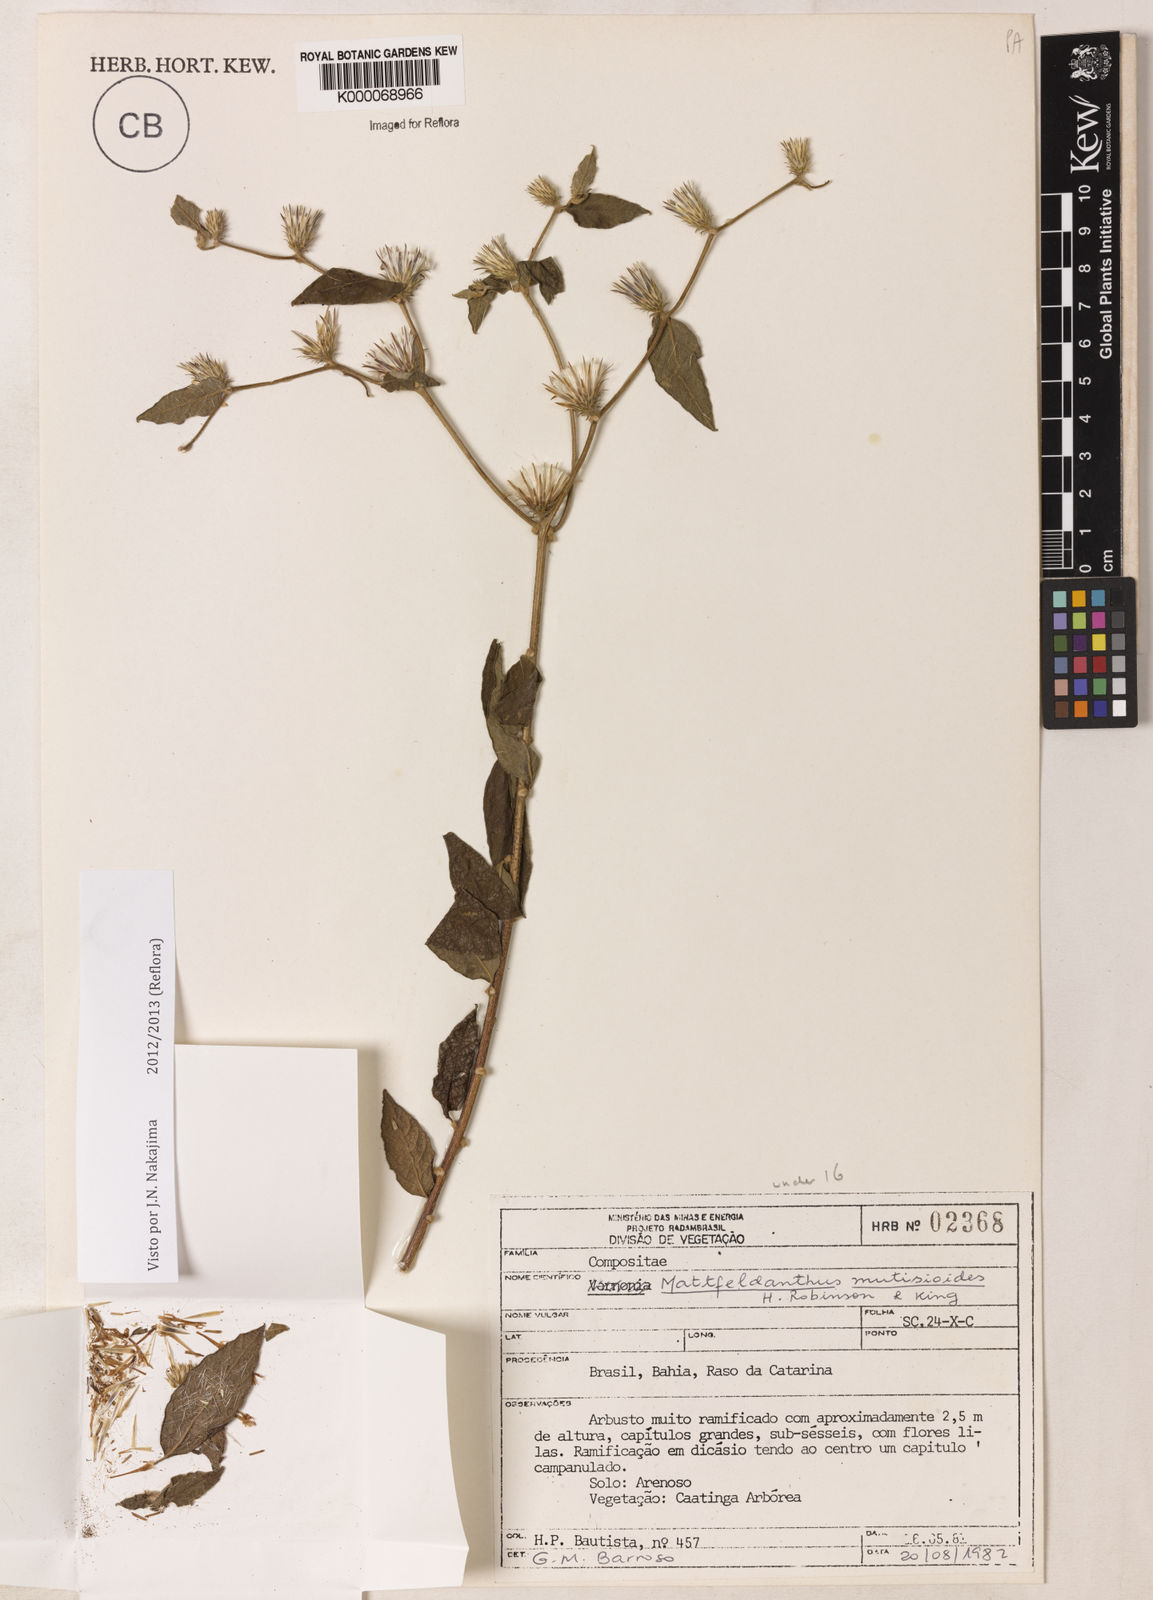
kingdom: Plantae
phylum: Tracheophyta
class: Magnoliopsida
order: Asterales
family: Asteraceae
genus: Mattfeldanthus
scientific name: Mattfeldanthus andrade-limae
